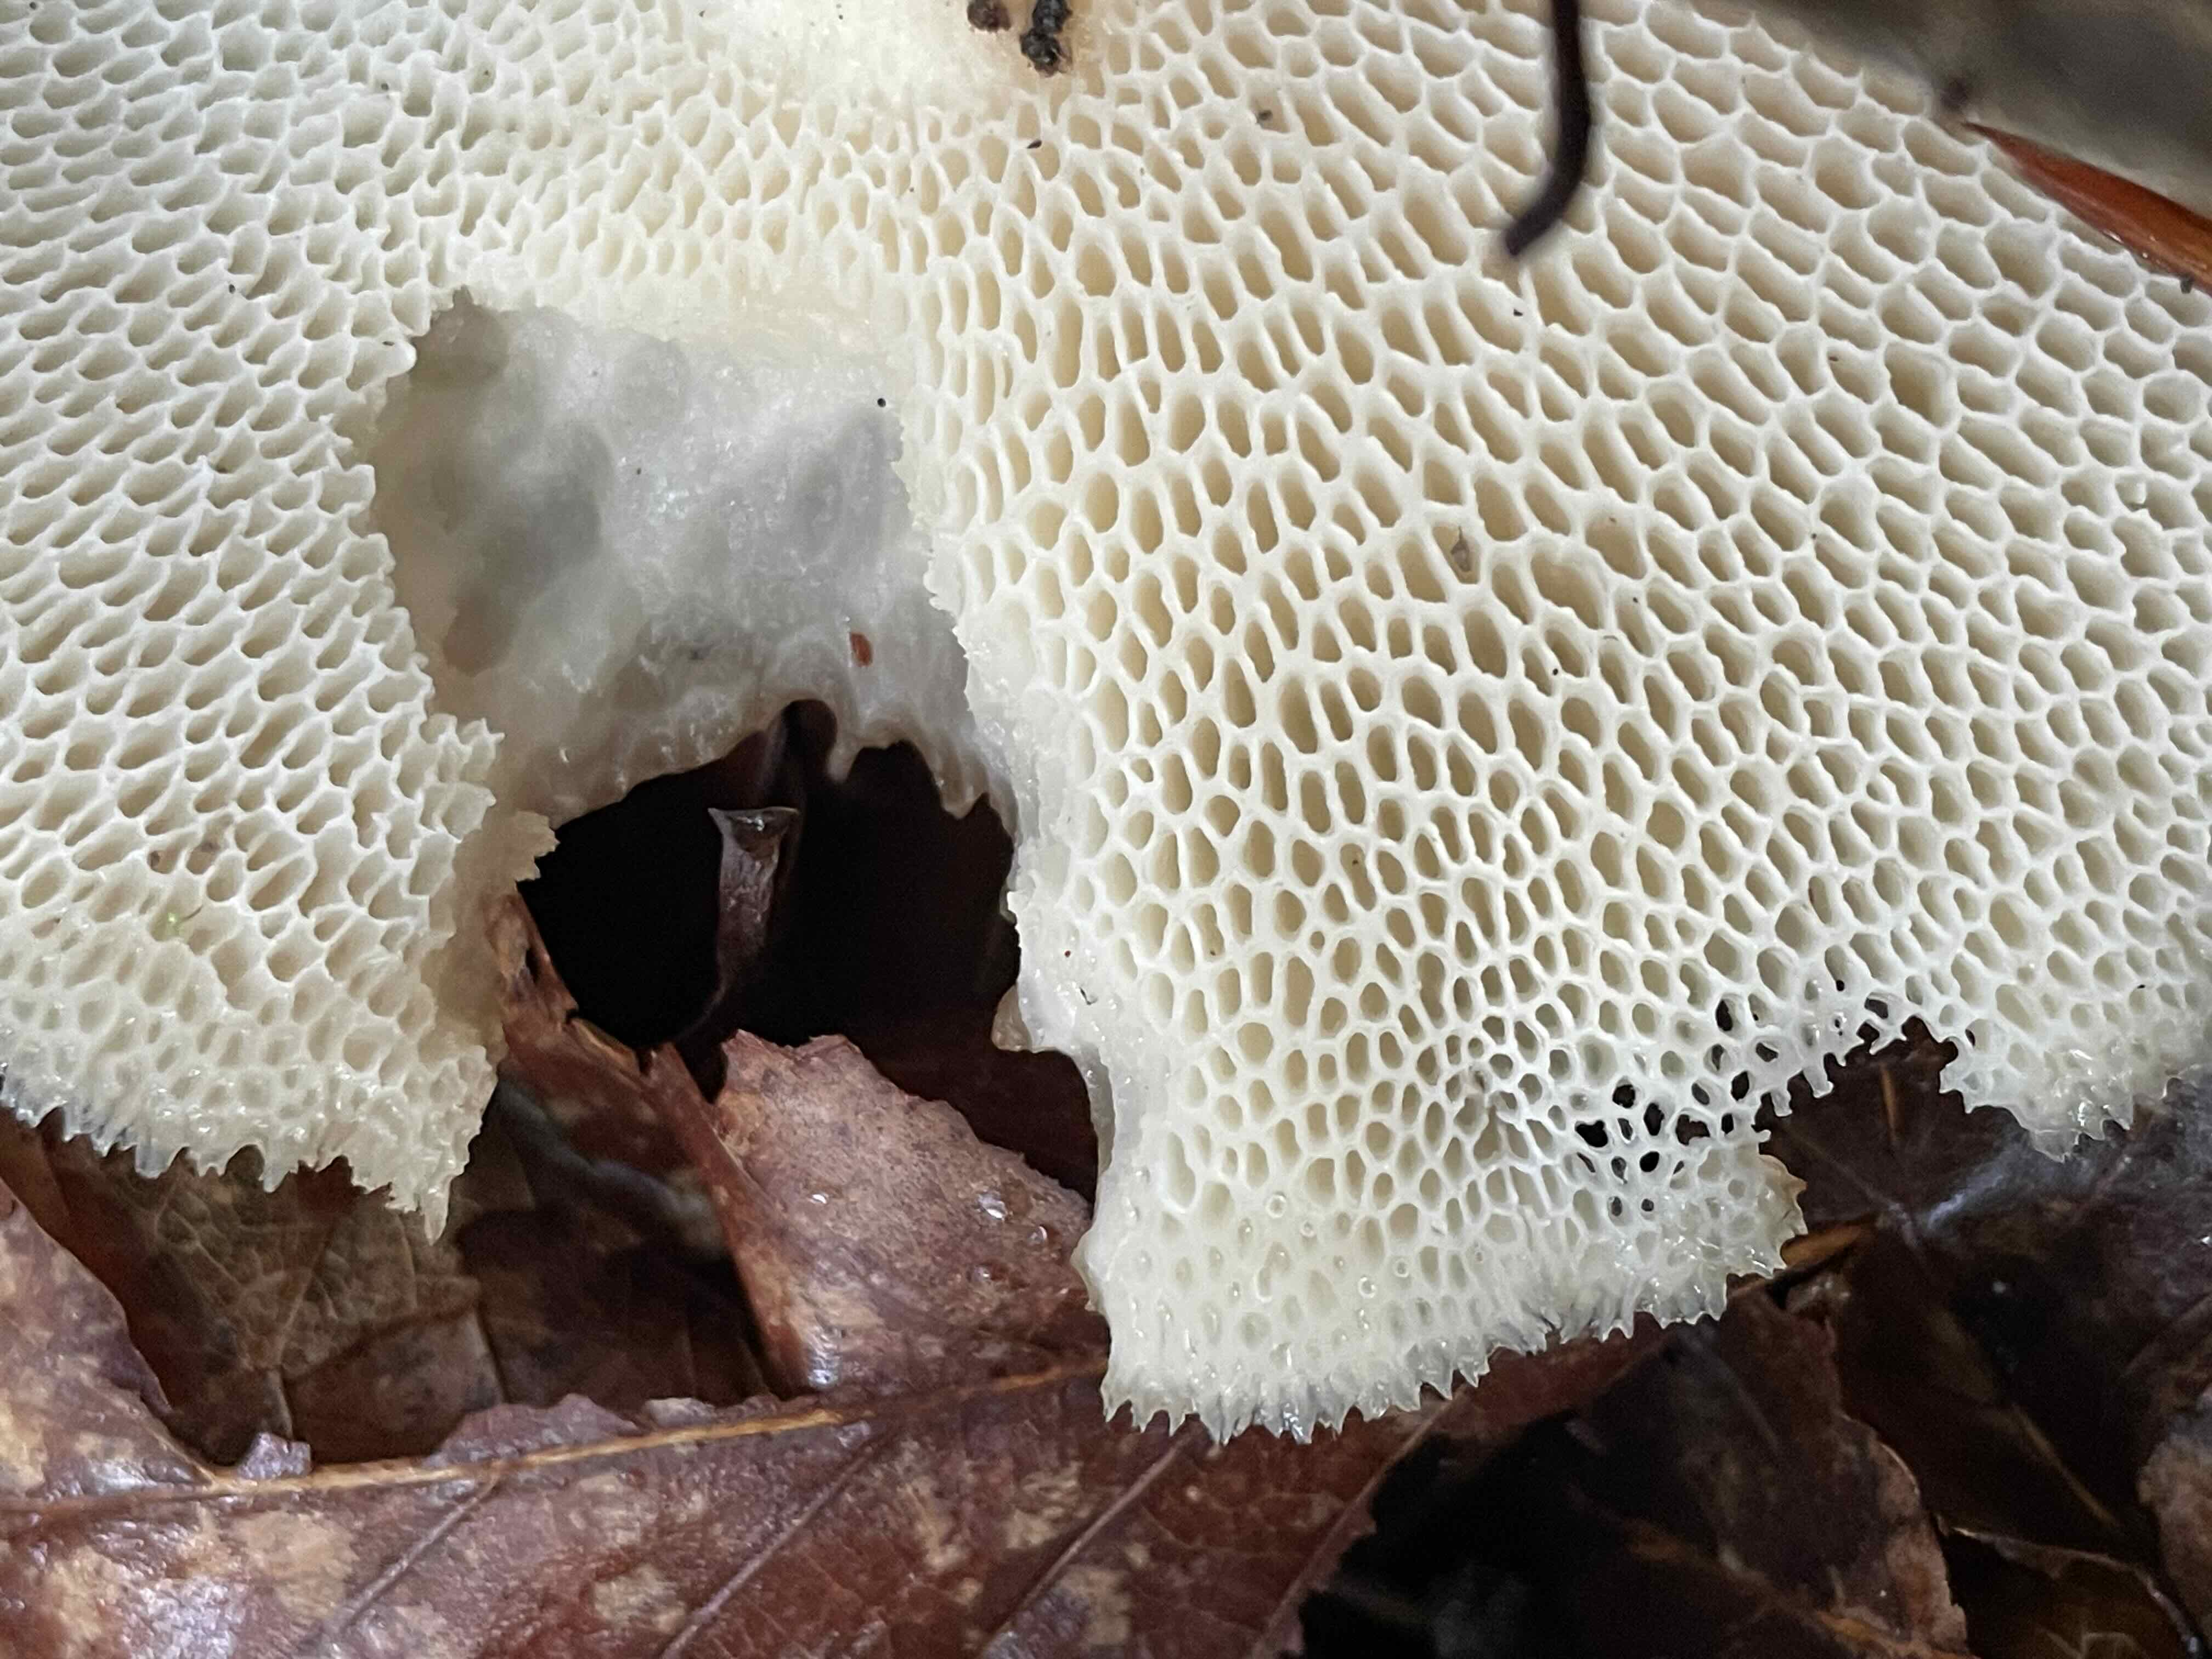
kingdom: Fungi
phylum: Basidiomycota
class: Agaricomycetes
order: Polyporales
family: Polyporaceae
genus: Polyporus
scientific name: Polyporus tuberaster
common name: knoldet stilkporesvamp
